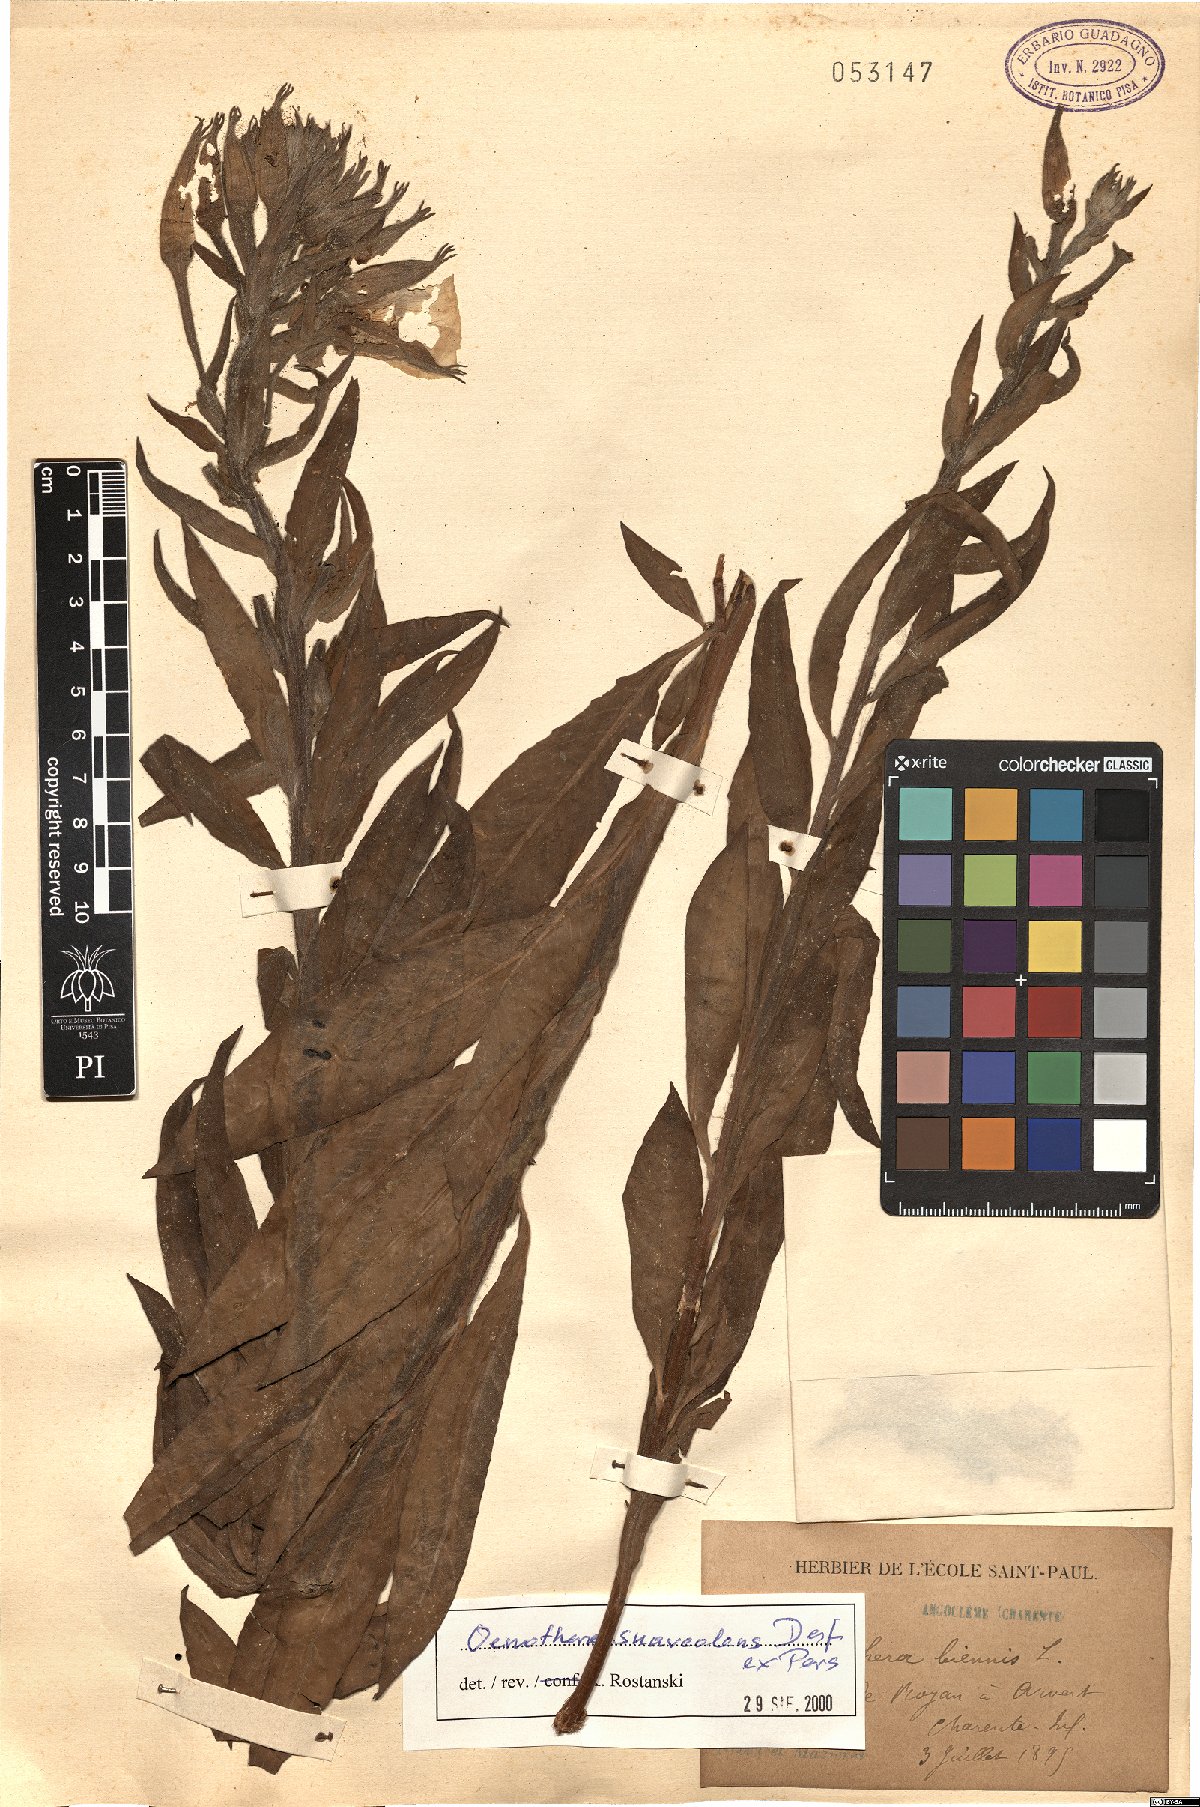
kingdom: Plantae
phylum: Tracheophyta
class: Magnoliopsida
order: Myrtales
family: Onagraceae
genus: Oenothera
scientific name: Oenothera suaveolens
